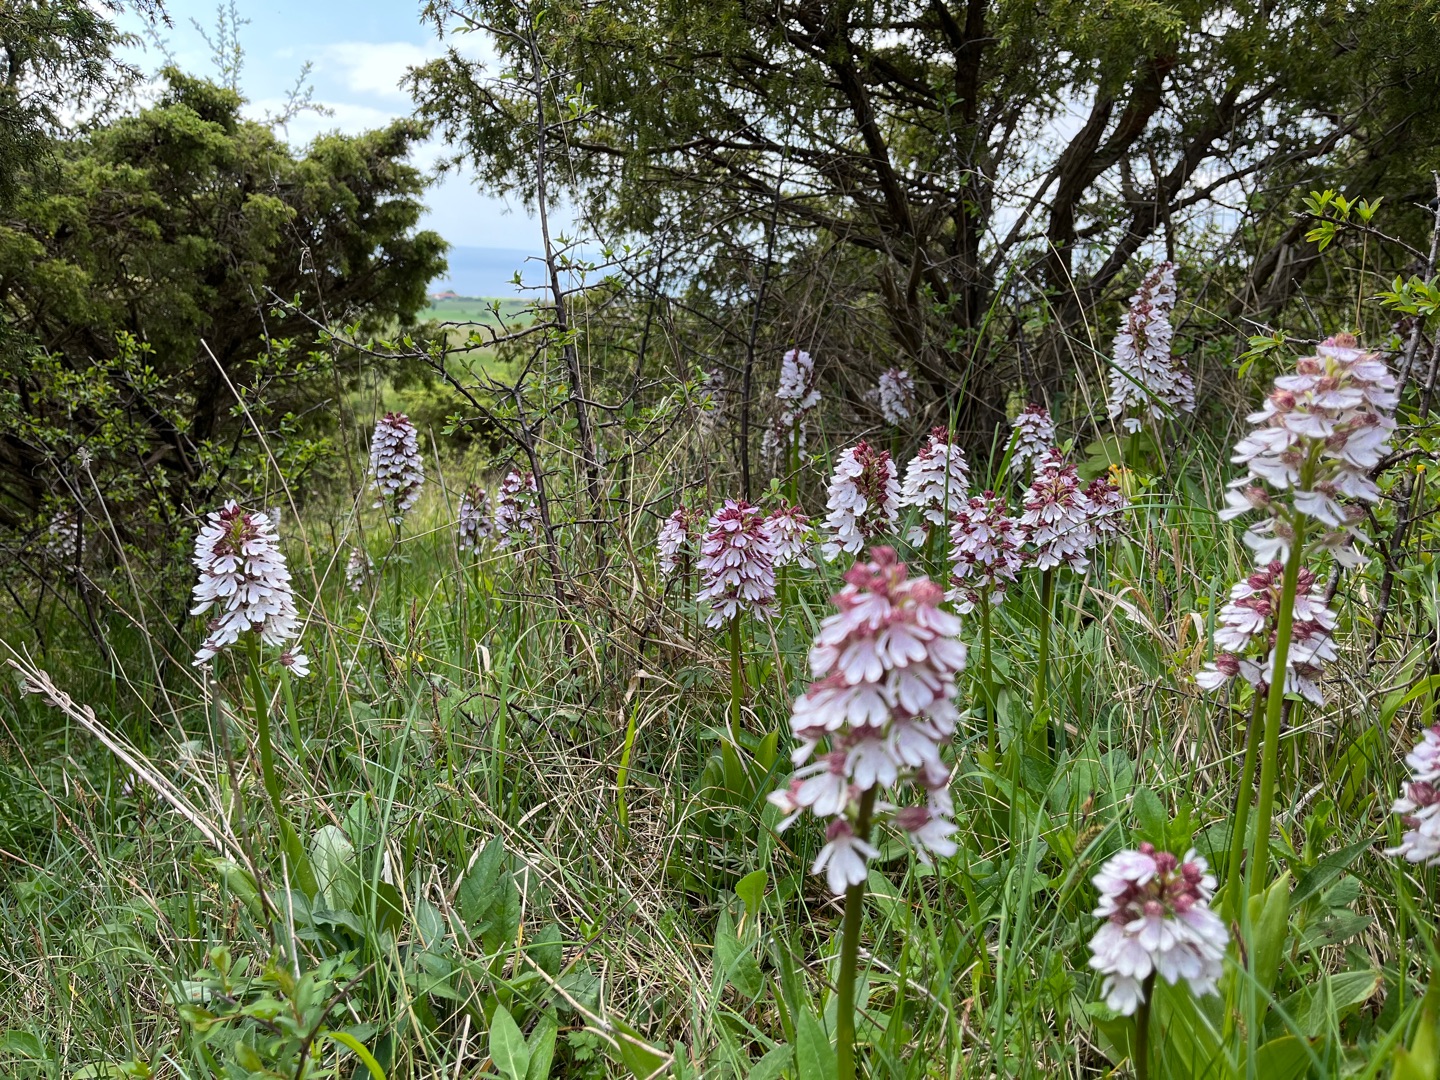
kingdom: Plantae
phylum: Tracheophyta
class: Liliopsida
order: Asparagales
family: Orchidaceae
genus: Orchis
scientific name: Orchis purpurea
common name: Stor gøgeurt
